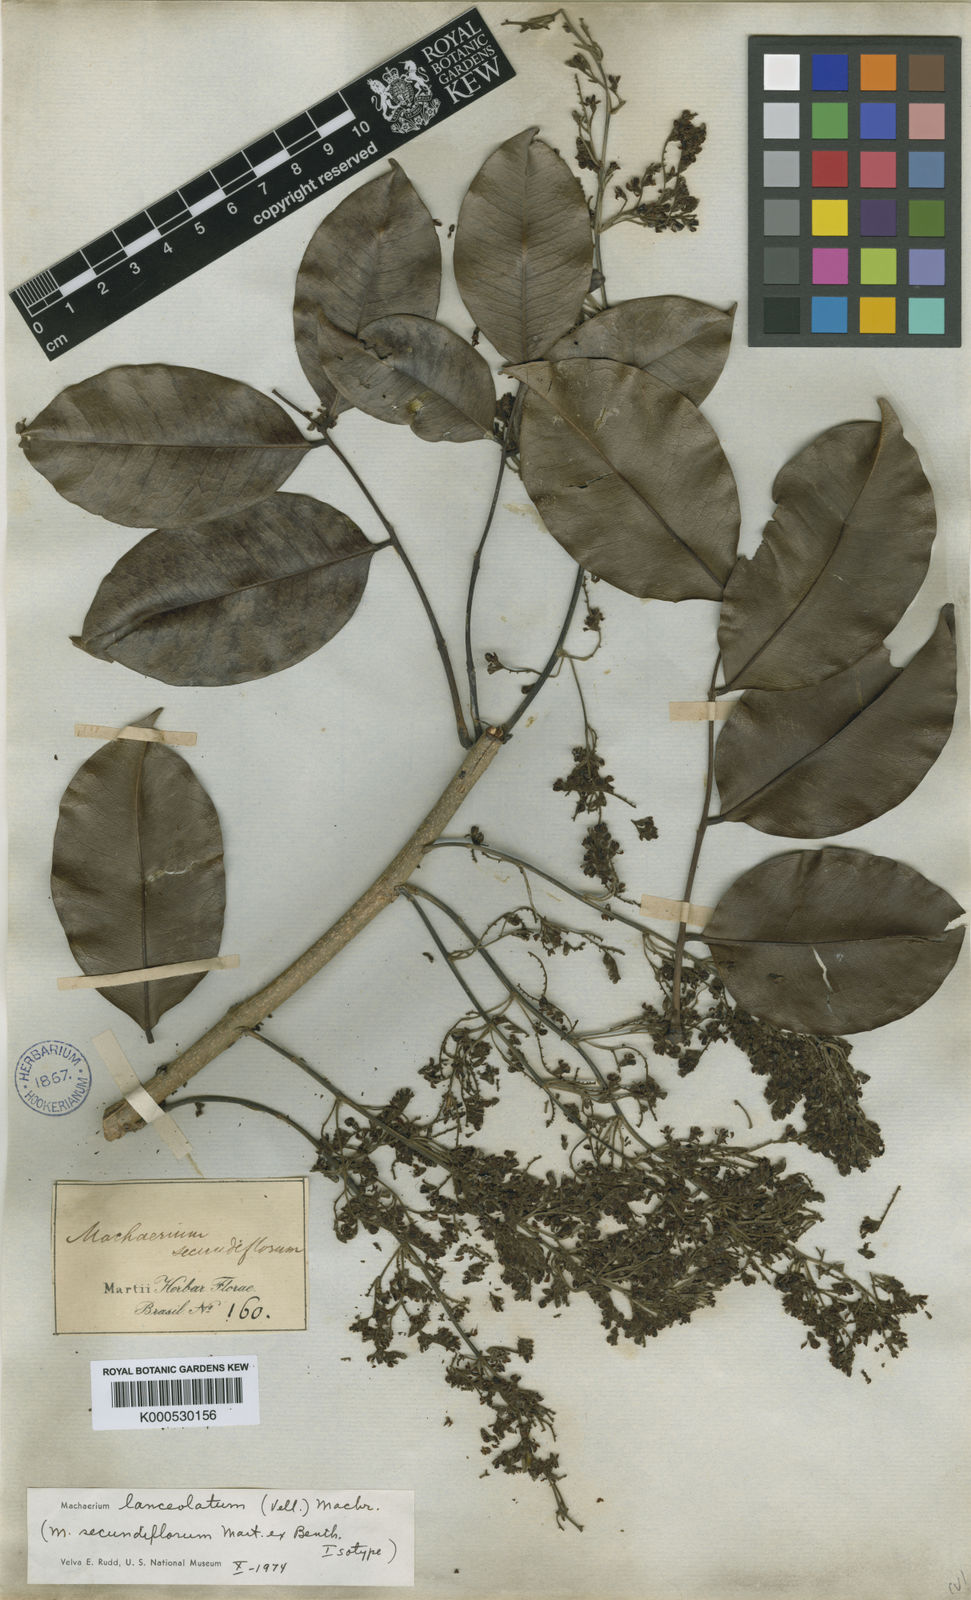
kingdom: Plantae
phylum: Tracheophyta
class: Magnoliopsida
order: Fabales
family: Fabaceae
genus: Machaerium
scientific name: Machaerium lanceolatum
